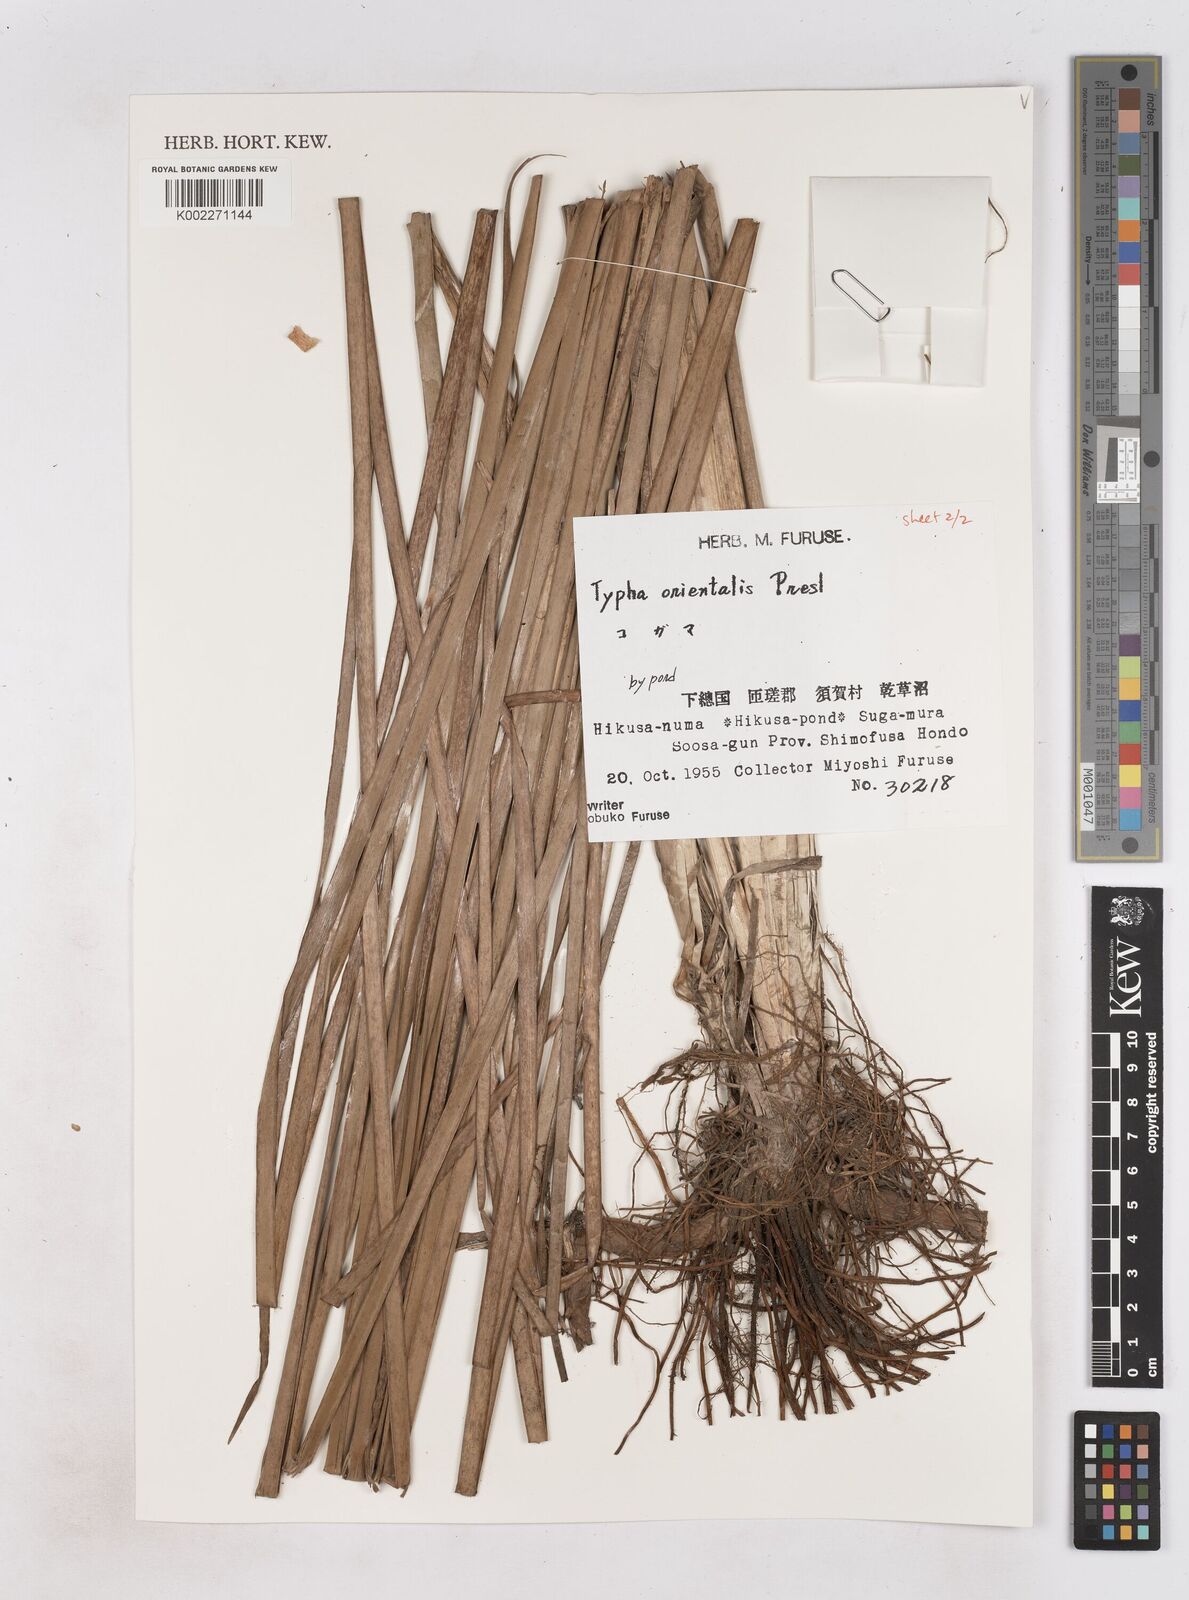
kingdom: Plantae
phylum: Tracheophyta
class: Liliopsida
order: Poales
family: Typhaceae
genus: Typha
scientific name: Typha
